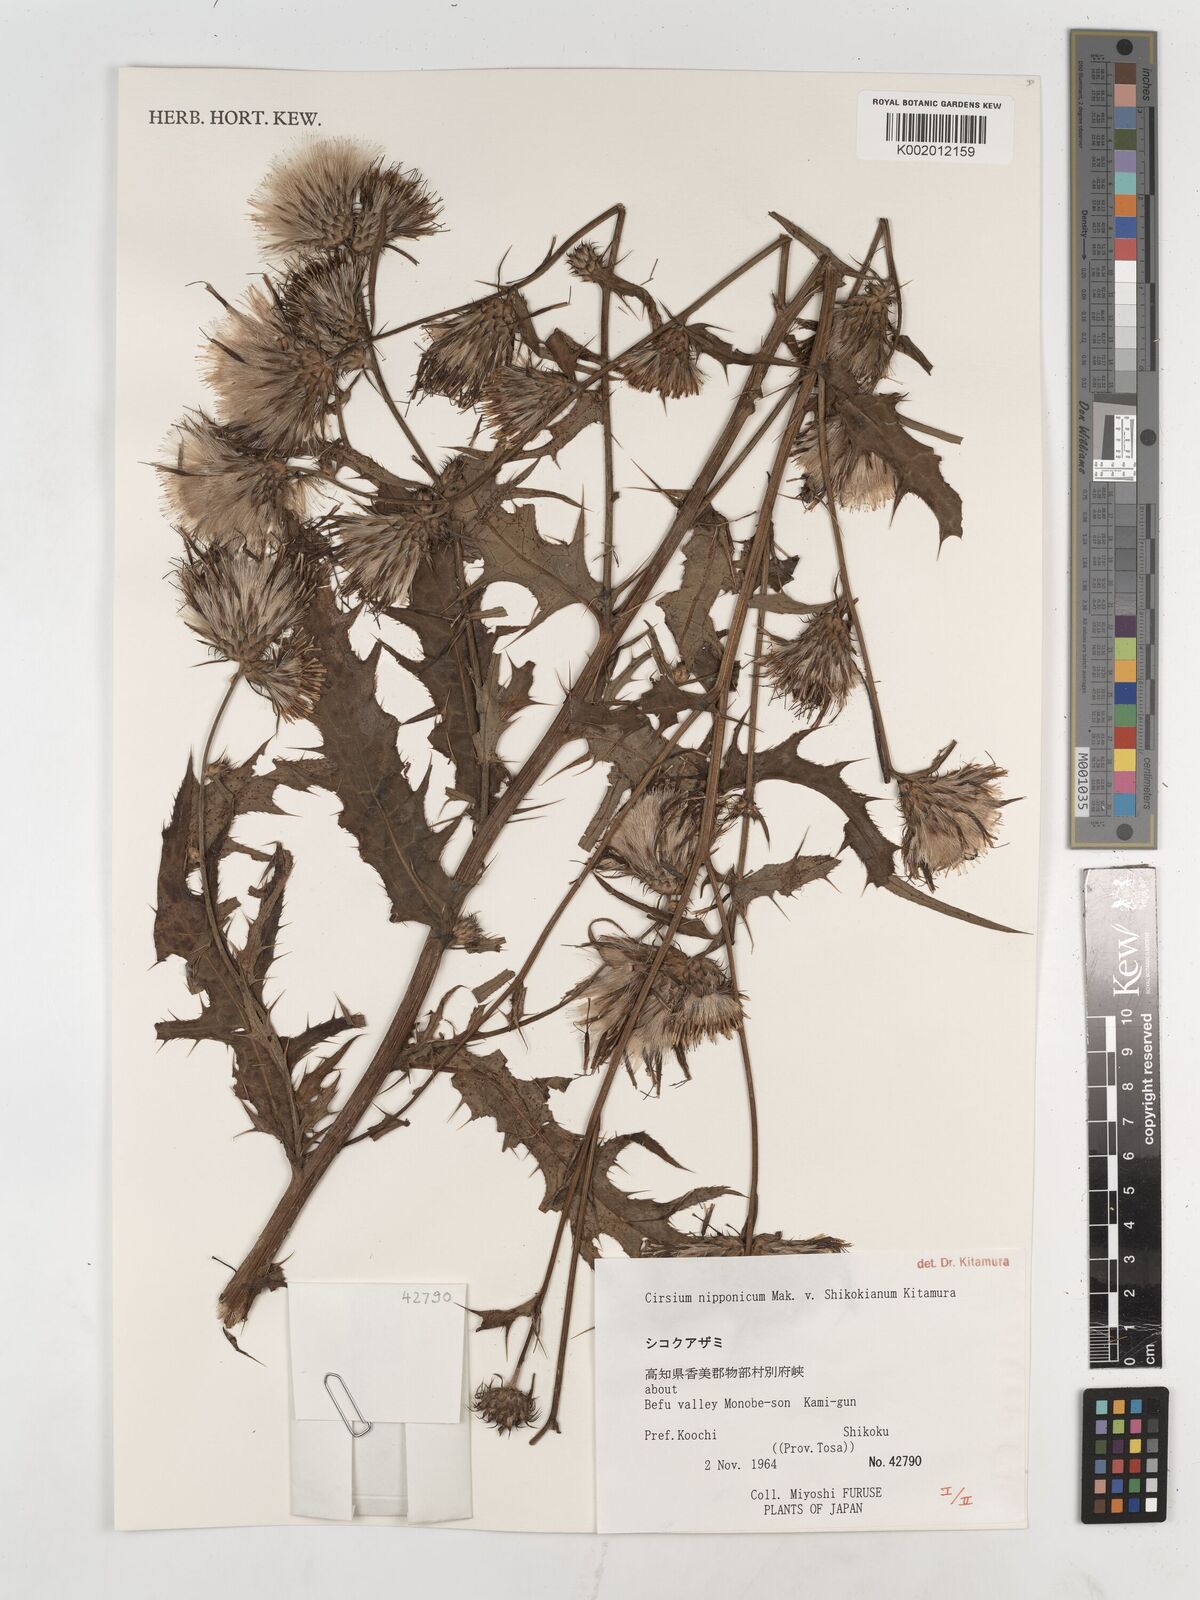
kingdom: Plantae
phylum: Tracheophyta
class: Magnoliopsida
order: Asterales
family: Asteraceae
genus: Cirsium
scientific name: Cirsium nippoense
